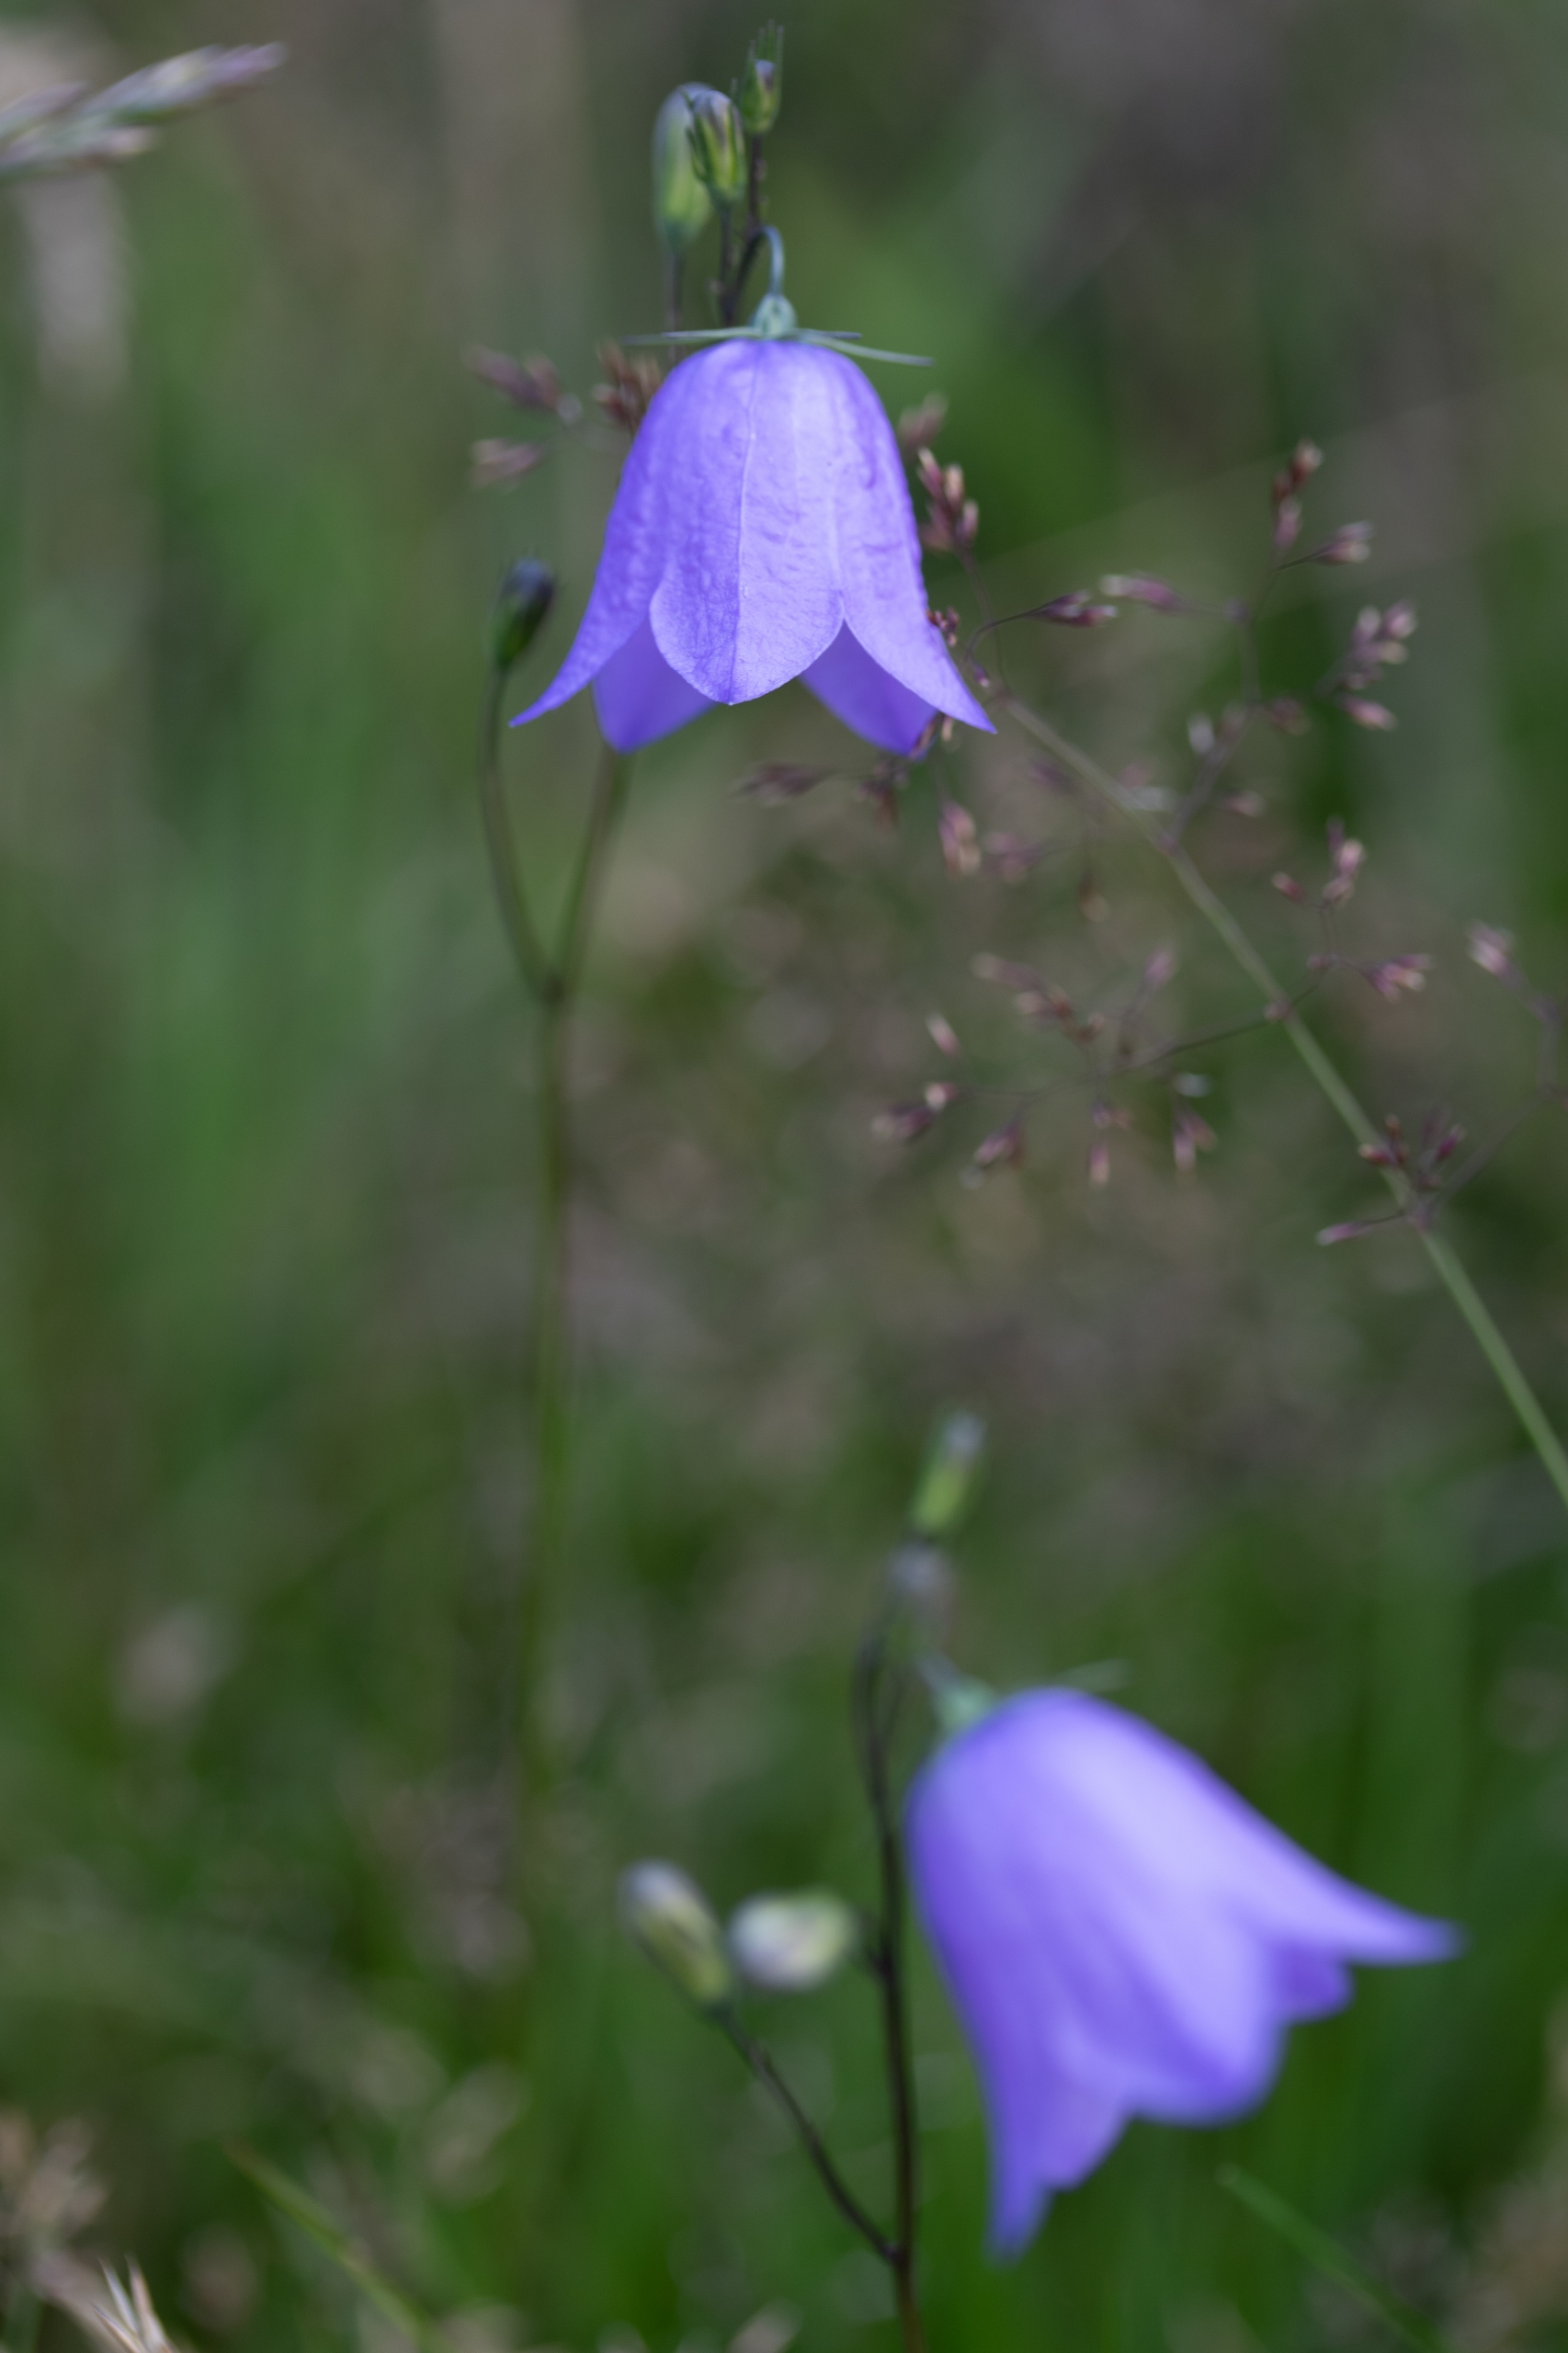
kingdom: Plantae
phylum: Tracheophyta
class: Magnoliopsida
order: Asterales
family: Campanulaceae
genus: Campanula
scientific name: Campanula rotundifolia
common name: Liden klokke
